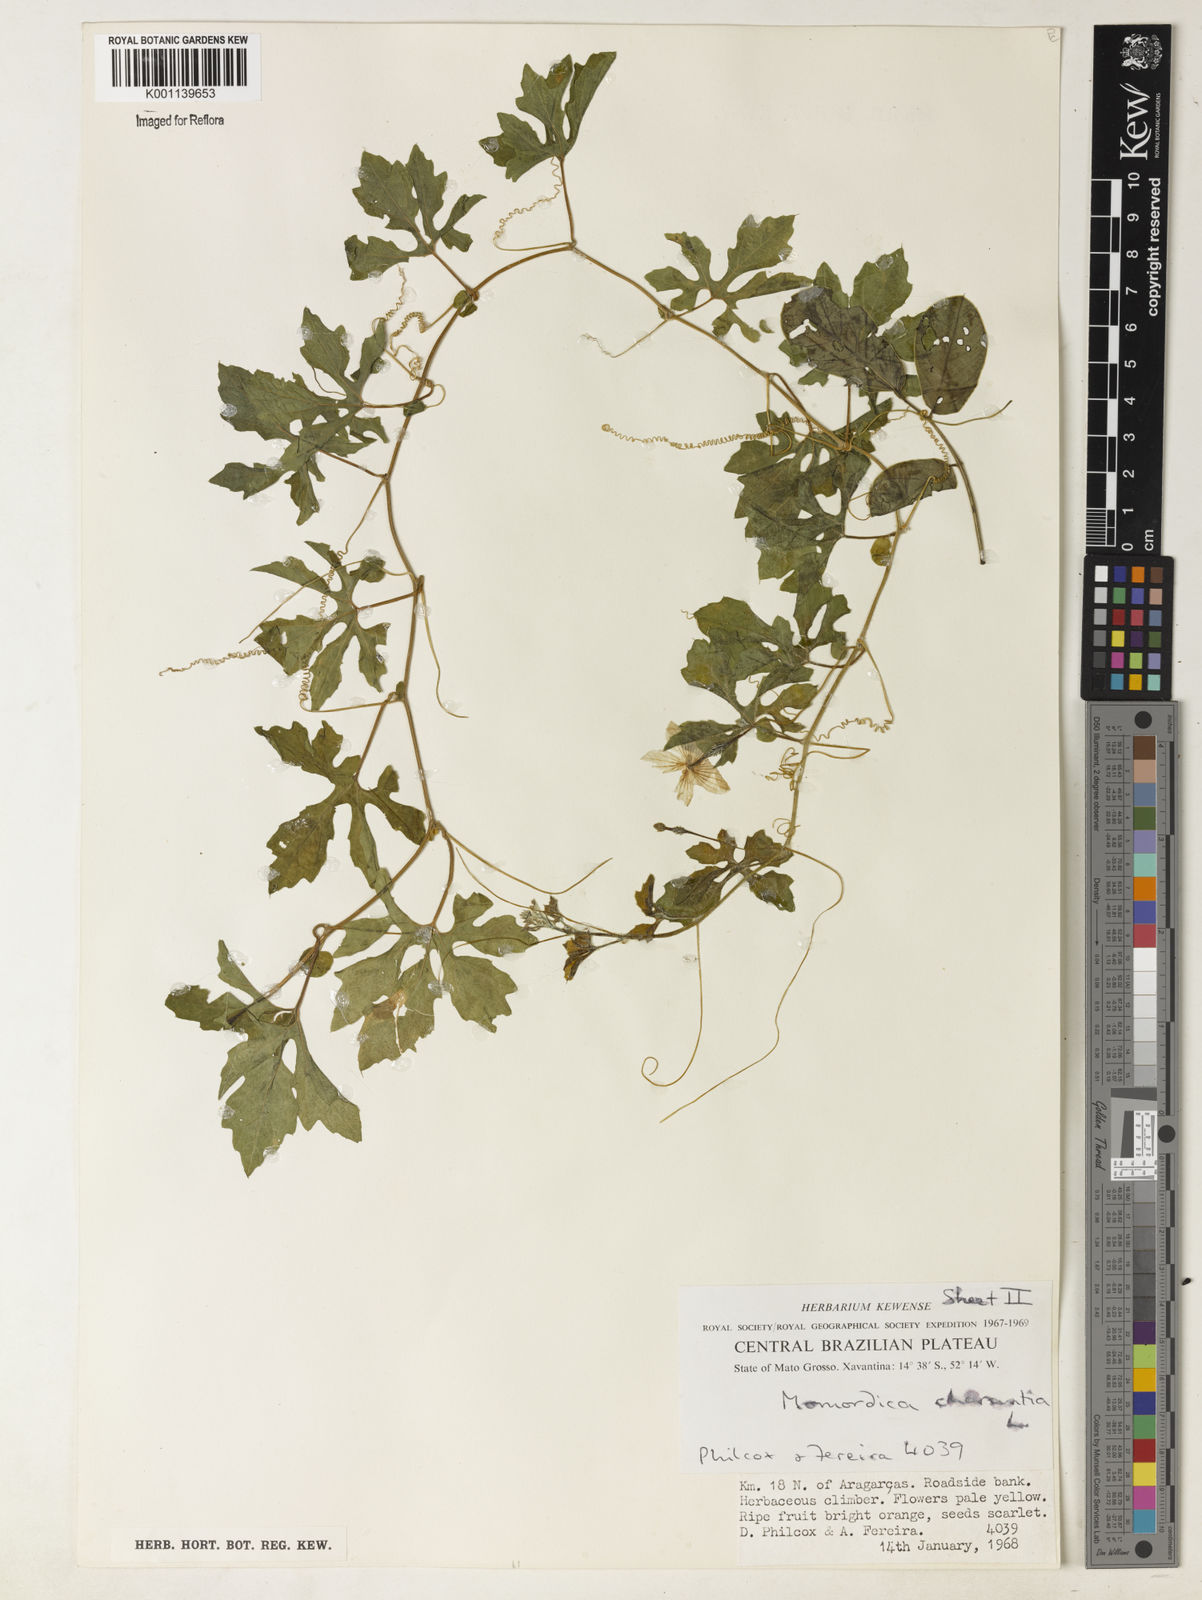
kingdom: Plantae
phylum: Tracheophyta
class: Magnoliopsida
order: Cucurbitales
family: Cucurbitaceae
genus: Momordica
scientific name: Momordica charantia
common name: Balsampear
